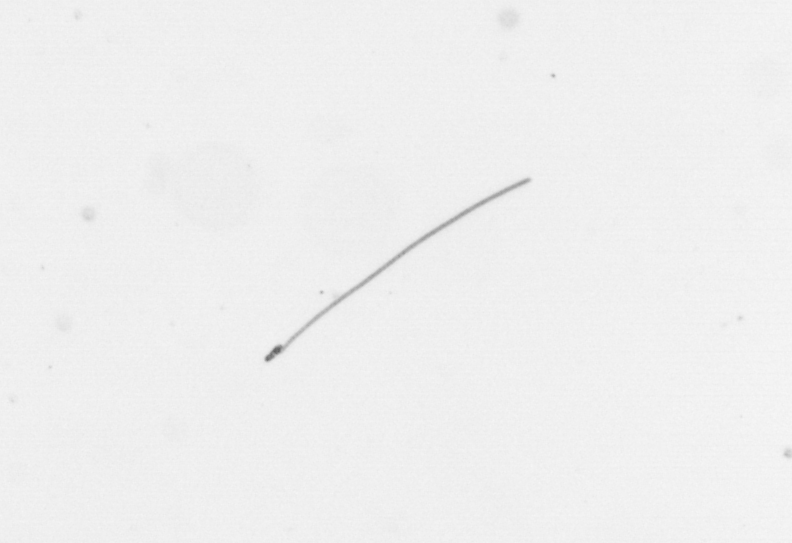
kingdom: Chromista
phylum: Ochrophyta
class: Bacillariophyceae
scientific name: Bacillariophyceae
